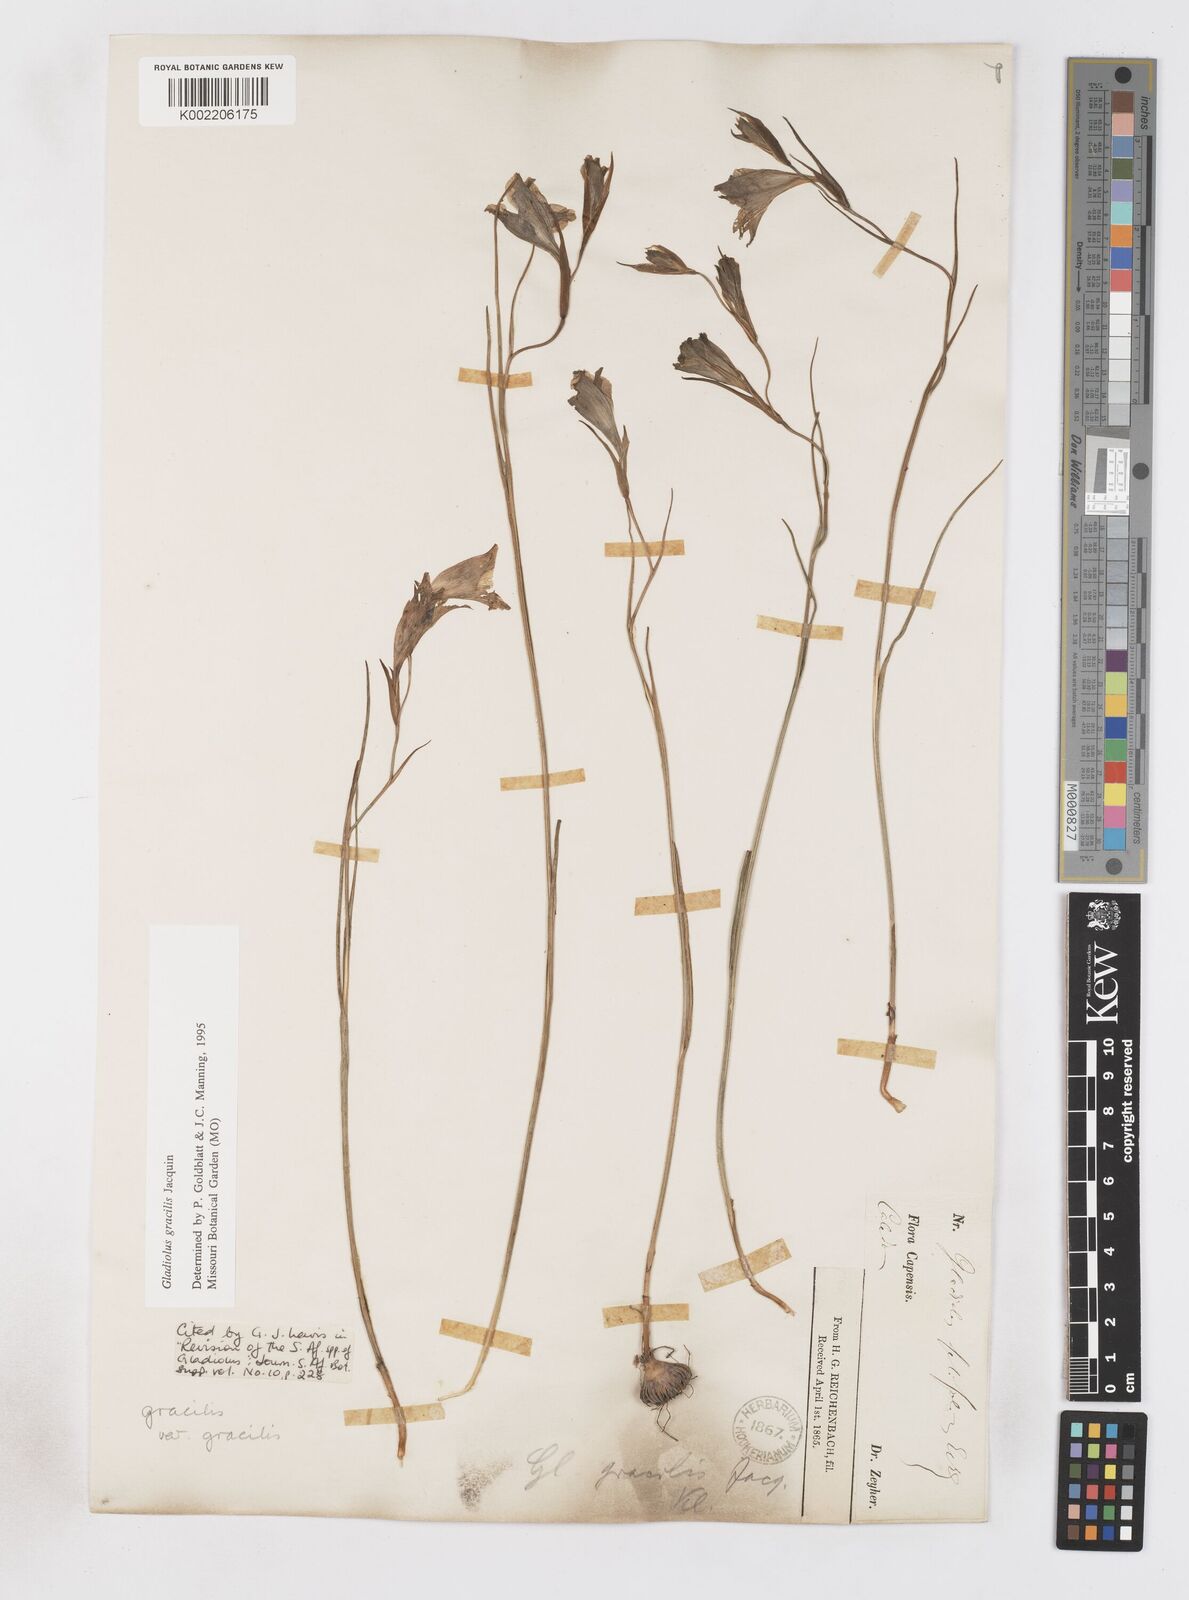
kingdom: Plantae
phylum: Tracheophyta
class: Liliopsida
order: Asparagales
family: Iridaceae
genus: Gladiolus
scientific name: Gladiolus gracilis
